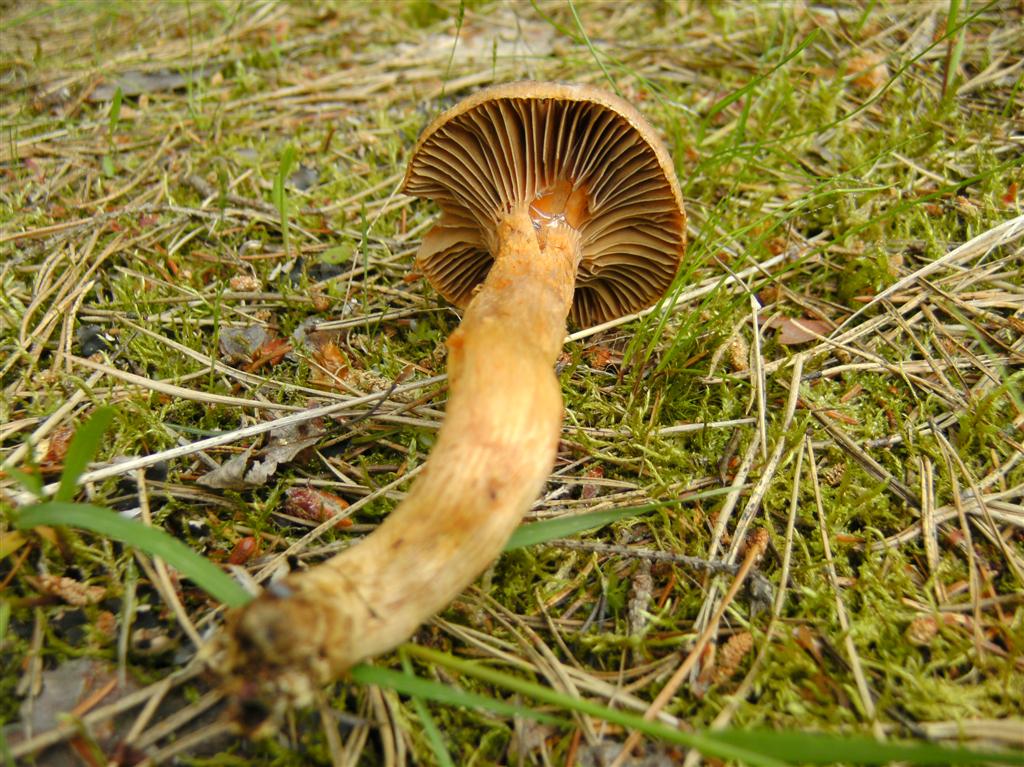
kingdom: Fungi
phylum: Basidiomycota
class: Agaricomycetes
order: Boletales
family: Gomphidiaceae
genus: Chroogomphus
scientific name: Chroogomphus rutilus
